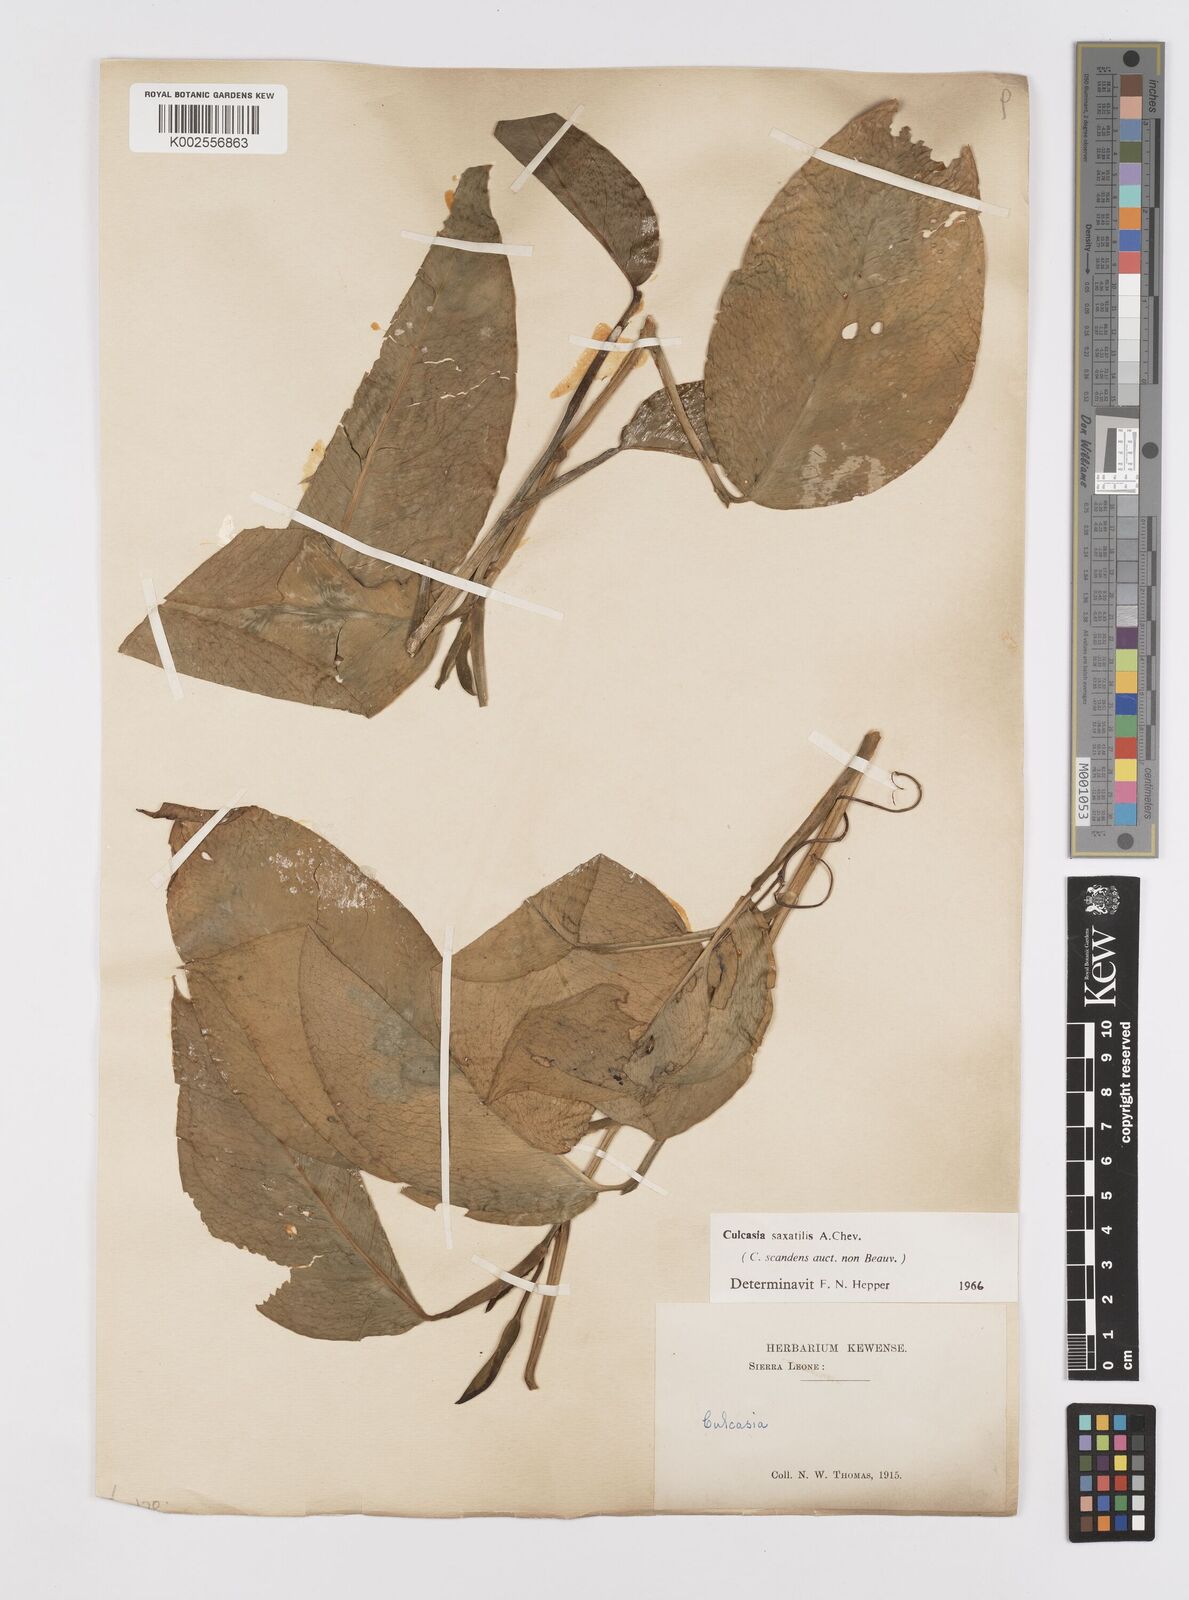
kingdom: Plantae
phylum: Tracheophyta
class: Liliopsida
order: Alismatales
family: Araceae
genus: Culcasia
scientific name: Culcasia scandens
